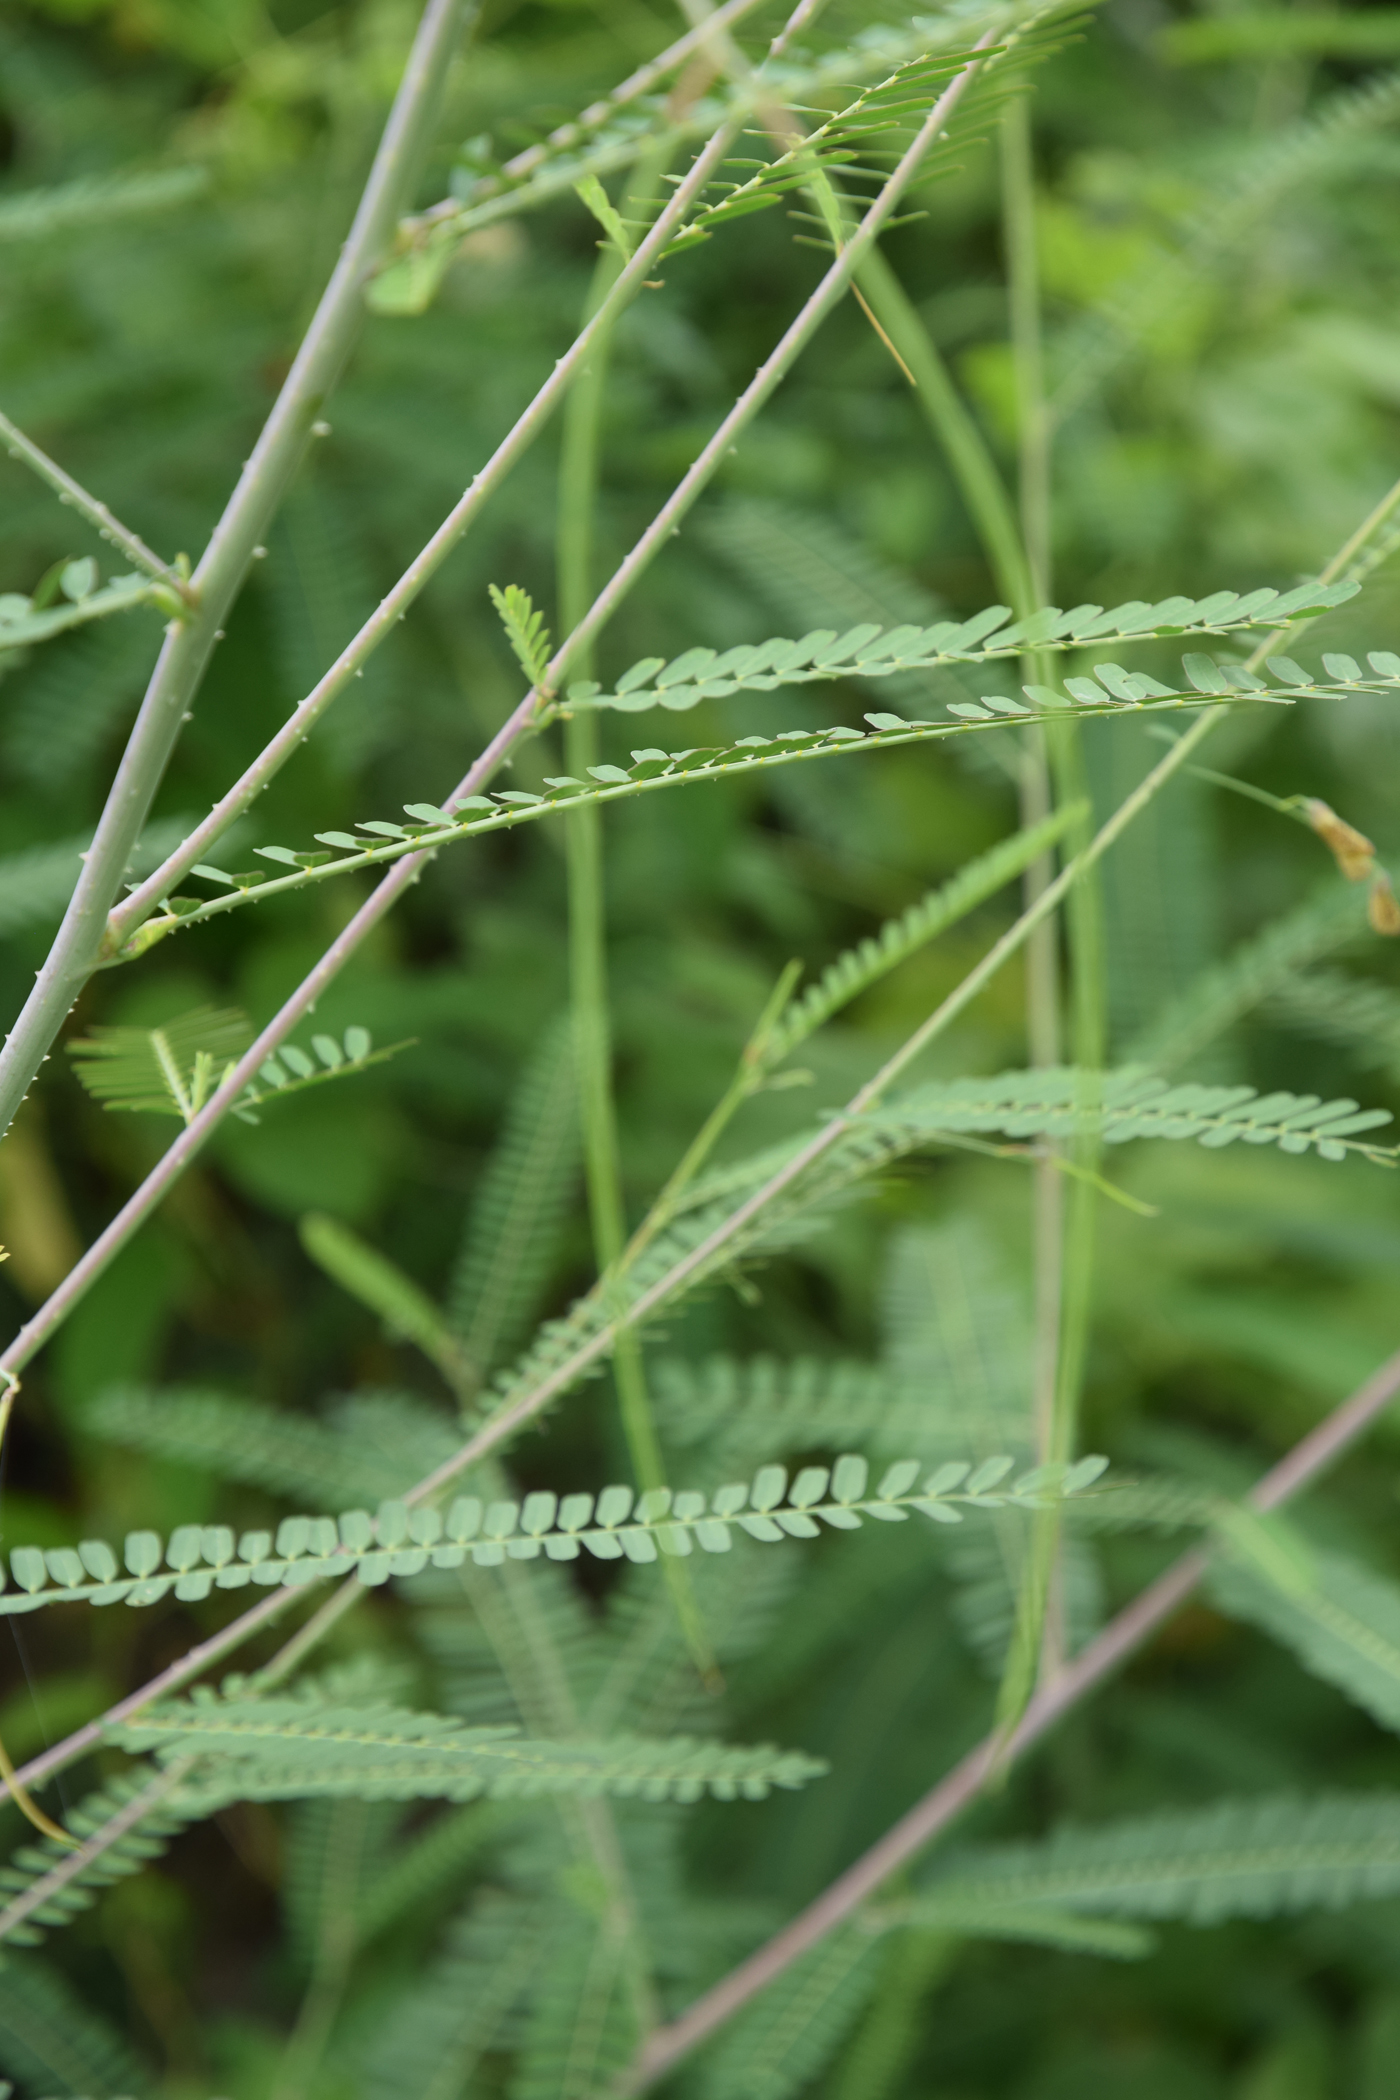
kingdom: Plantae
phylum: Tracheophyta
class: Magnoliopsida
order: Fabales
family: Fabaceae
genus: Sesbania
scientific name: Sesbania bispinosa
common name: Sesbania pea
